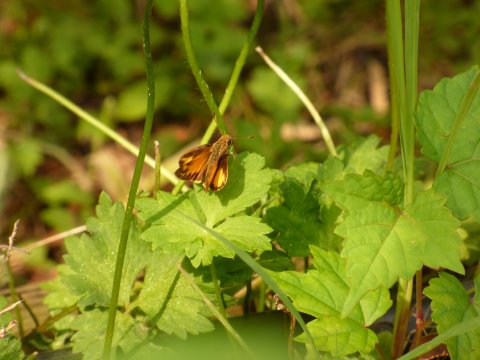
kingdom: Animalia
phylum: Arthropoda
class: Insecta
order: Lepidoptera
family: Hesperiidae
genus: Lon
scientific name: Lon zabulon
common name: Zabulon Skipper
